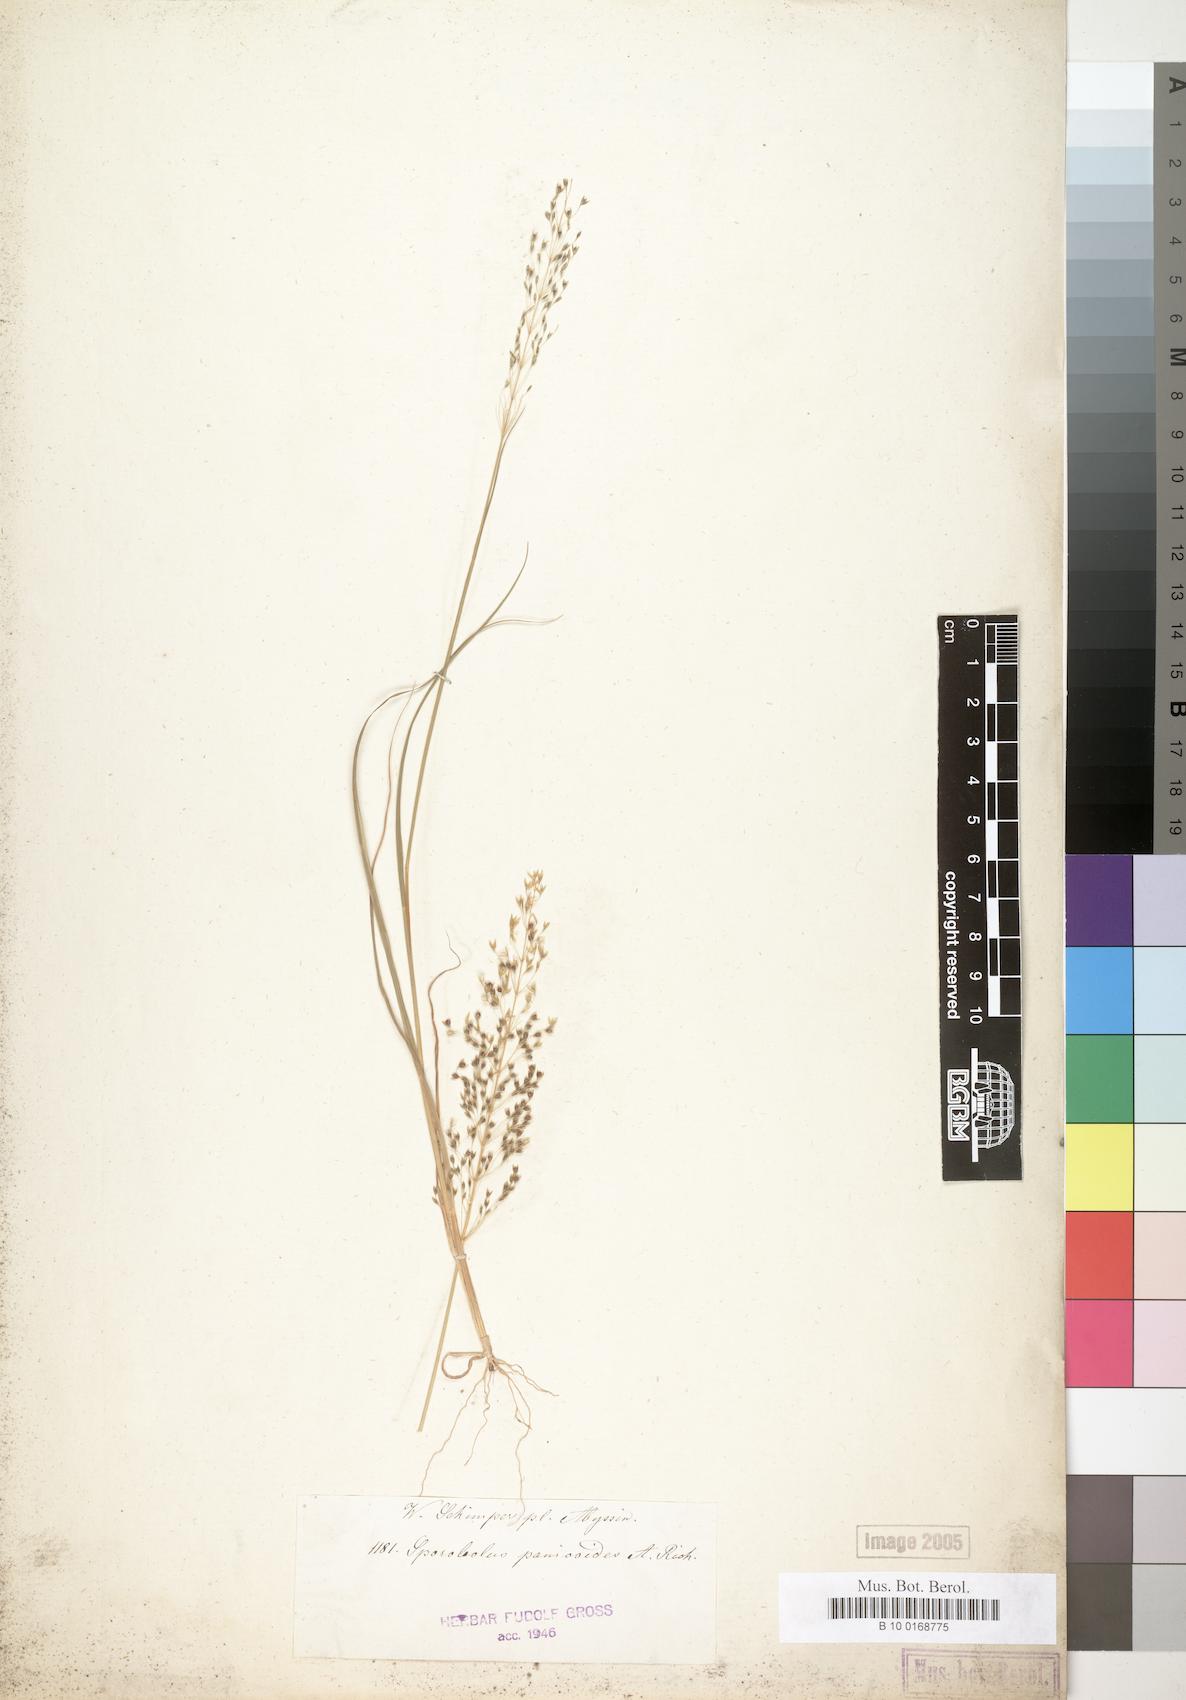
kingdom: Plantae
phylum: Tracheophyta
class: Liliopsida
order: Poales
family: Poaceae
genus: Sporobolus
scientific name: Sporobolus panicoides
